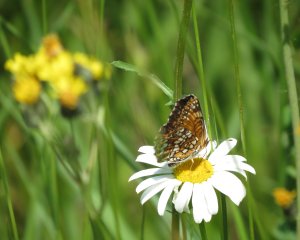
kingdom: Animalia
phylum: Arthropoda
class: Insecta
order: Lepidoptera
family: Nymphalidae
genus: Chlosyne
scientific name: Chlosyne harrisii
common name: Harris's Checkerspot
